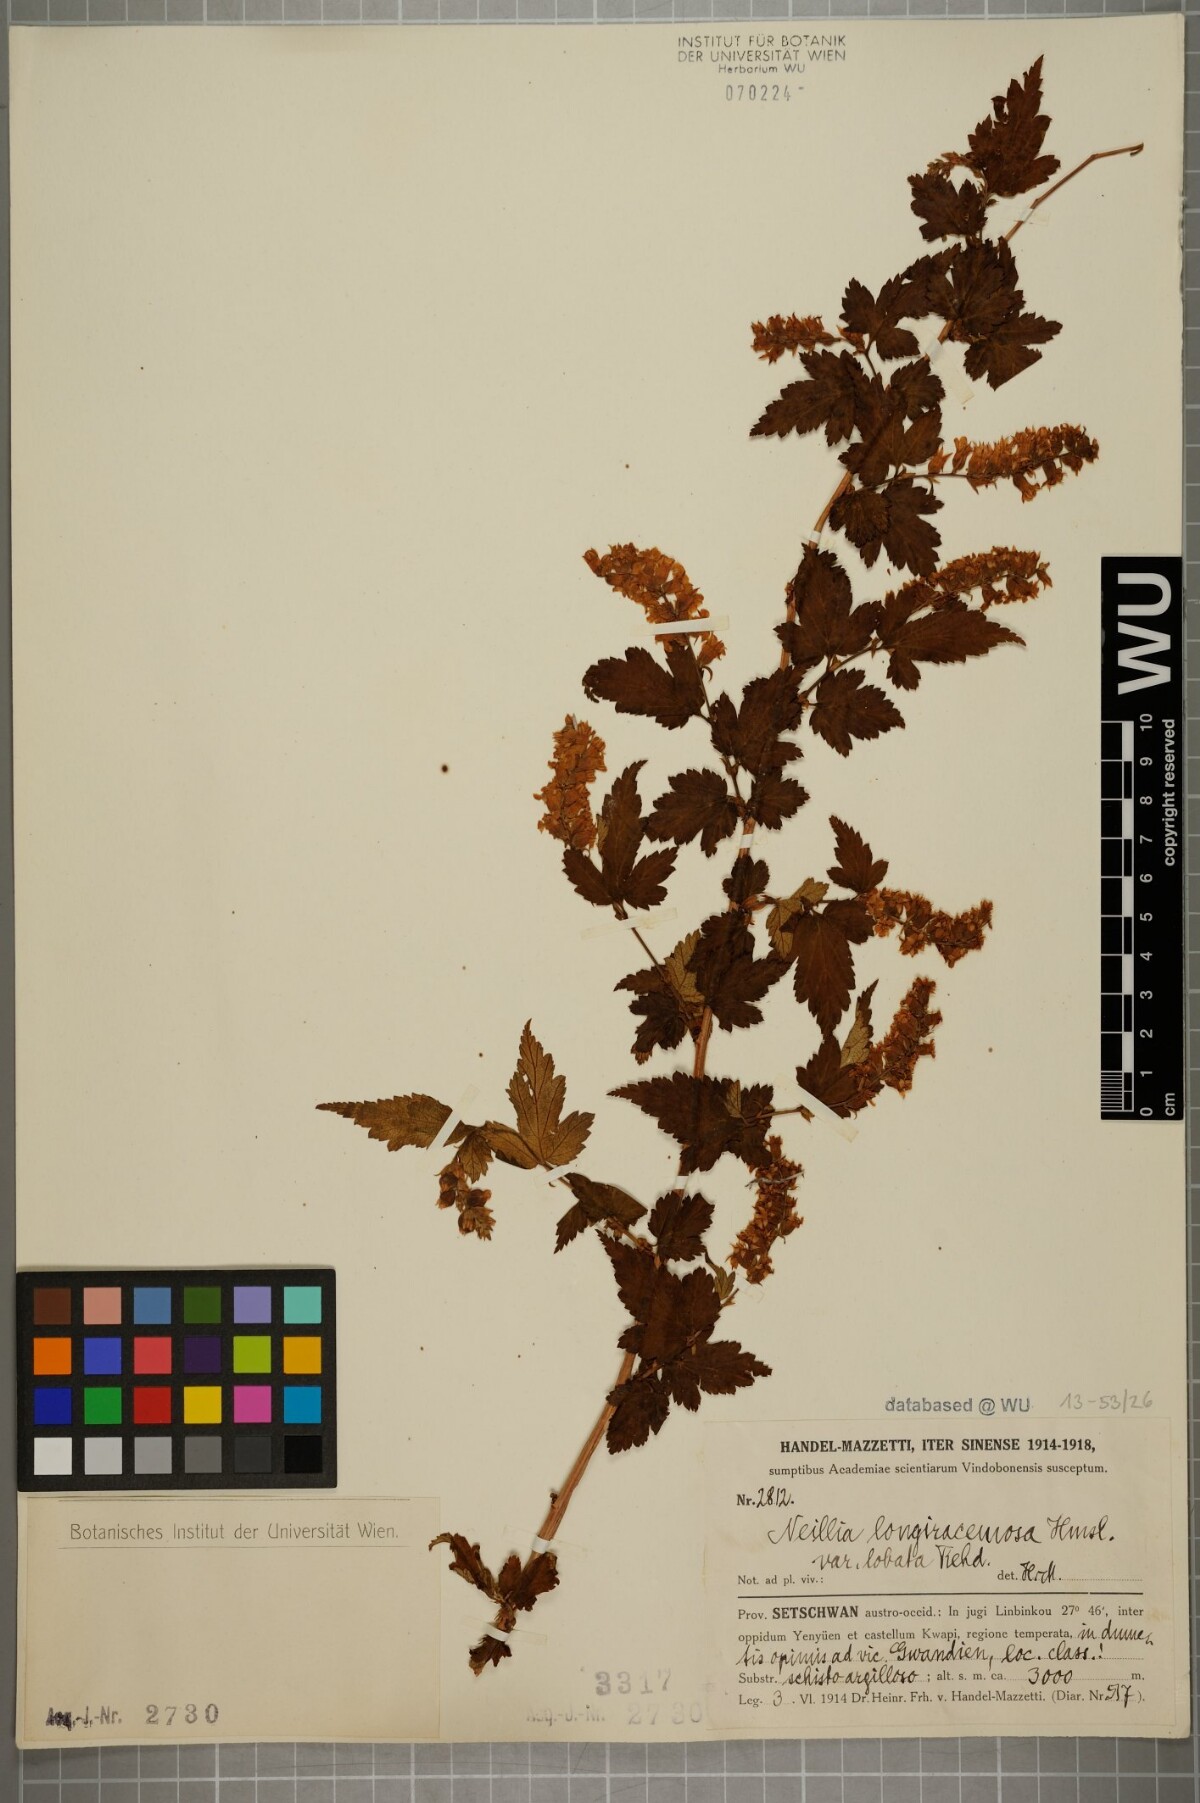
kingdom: Plantae
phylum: Tracheophyta
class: Magnoliopsida
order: Rosales
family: Rosaceae
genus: Neillia
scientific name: Neillia thibetica
